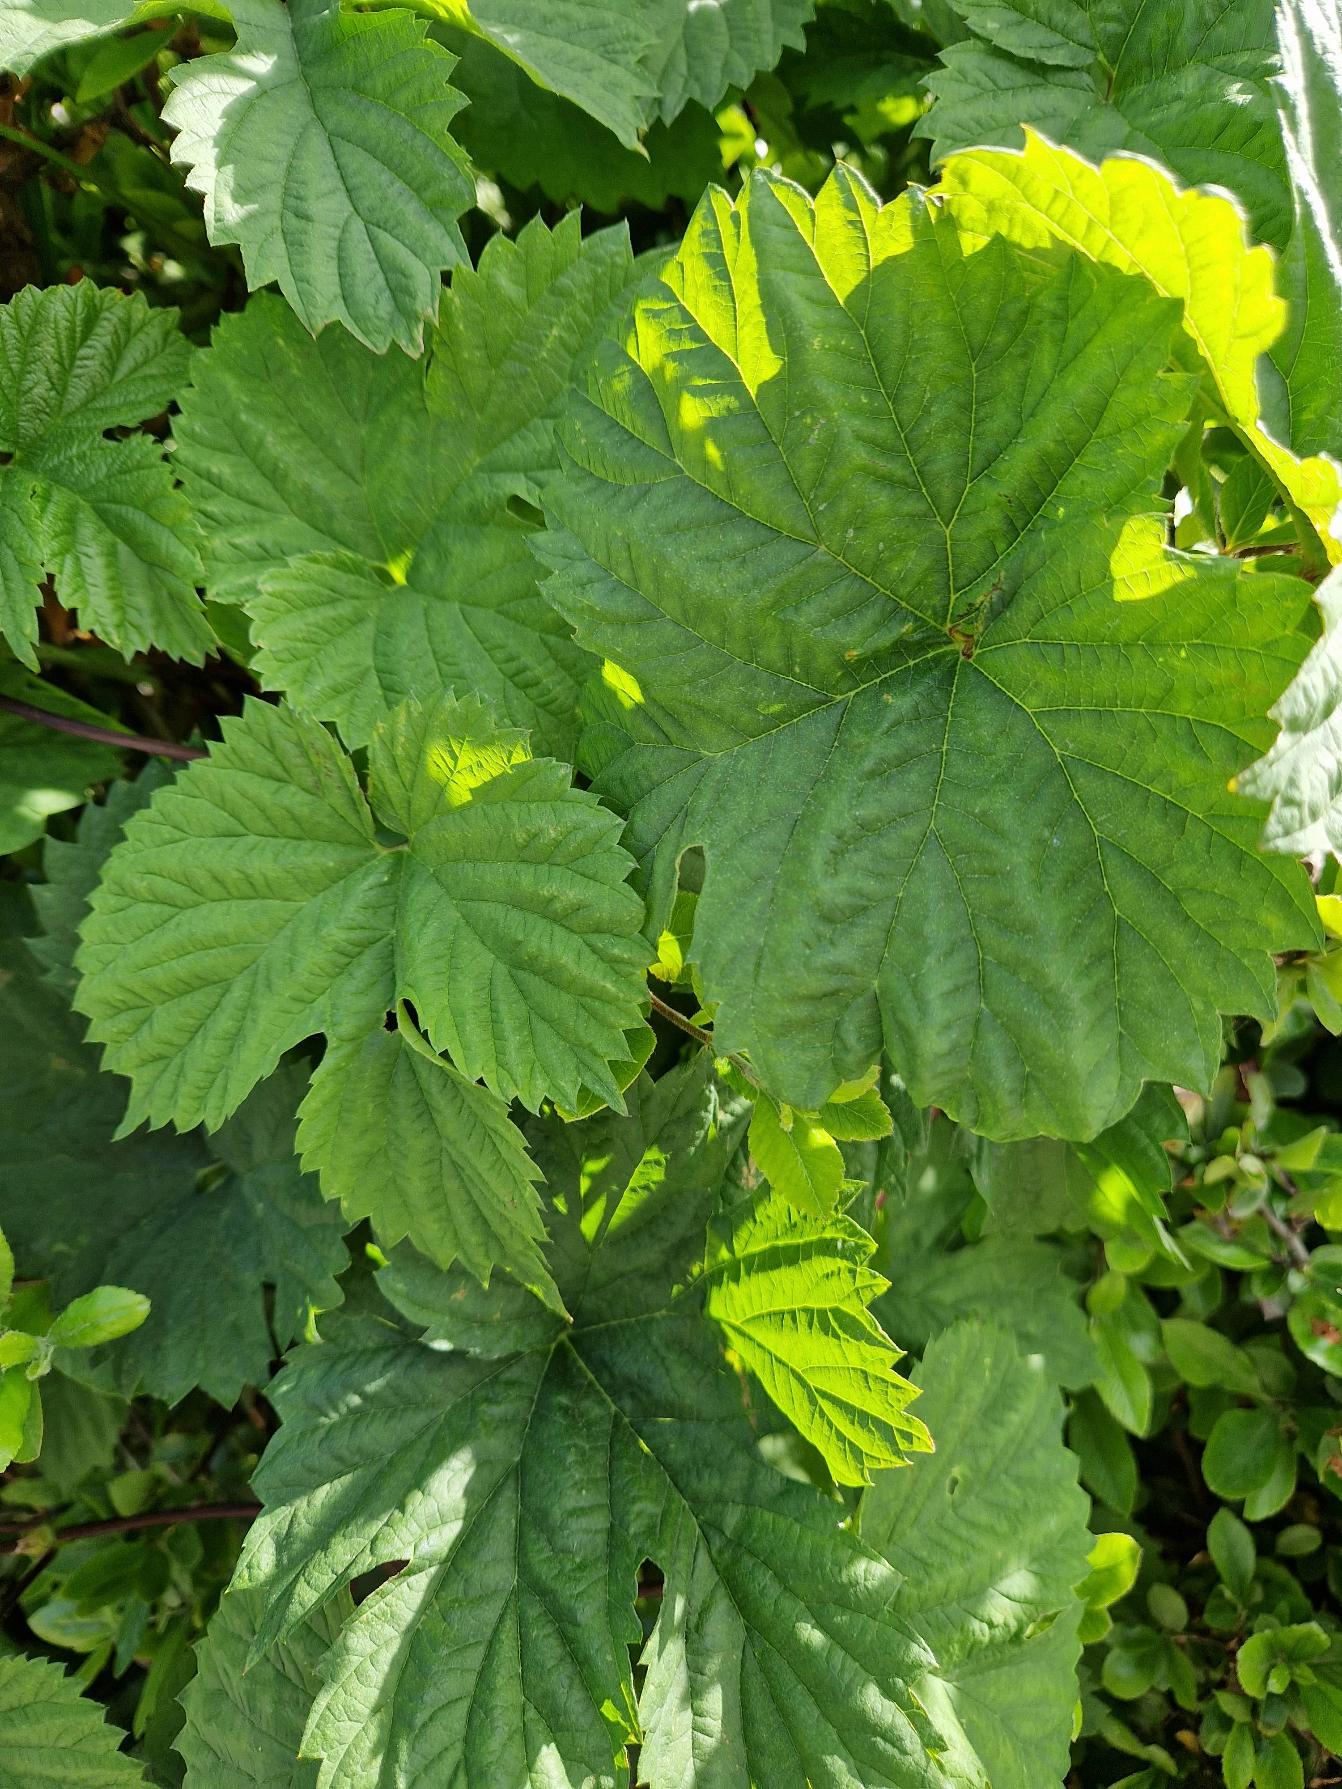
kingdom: Plantae
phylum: Tracheophyta
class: Magnoliopsida
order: Rosales
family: Cannabaceae
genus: Humulus
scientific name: Humulus lupulus
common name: Humle
